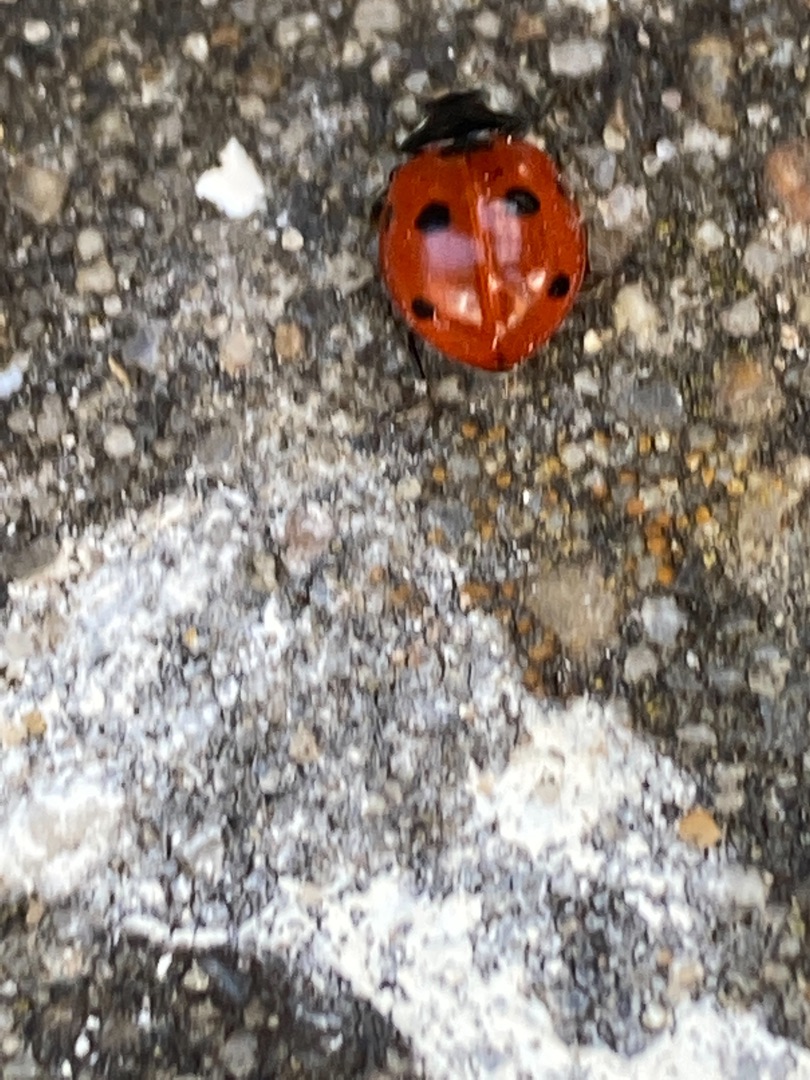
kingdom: Animalia
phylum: Arthropoda
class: Insecta
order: Coleoptera
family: Coccinellidae
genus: Coccinella
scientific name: Coccinella septempunctata
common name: Syvplettet mariehøne
